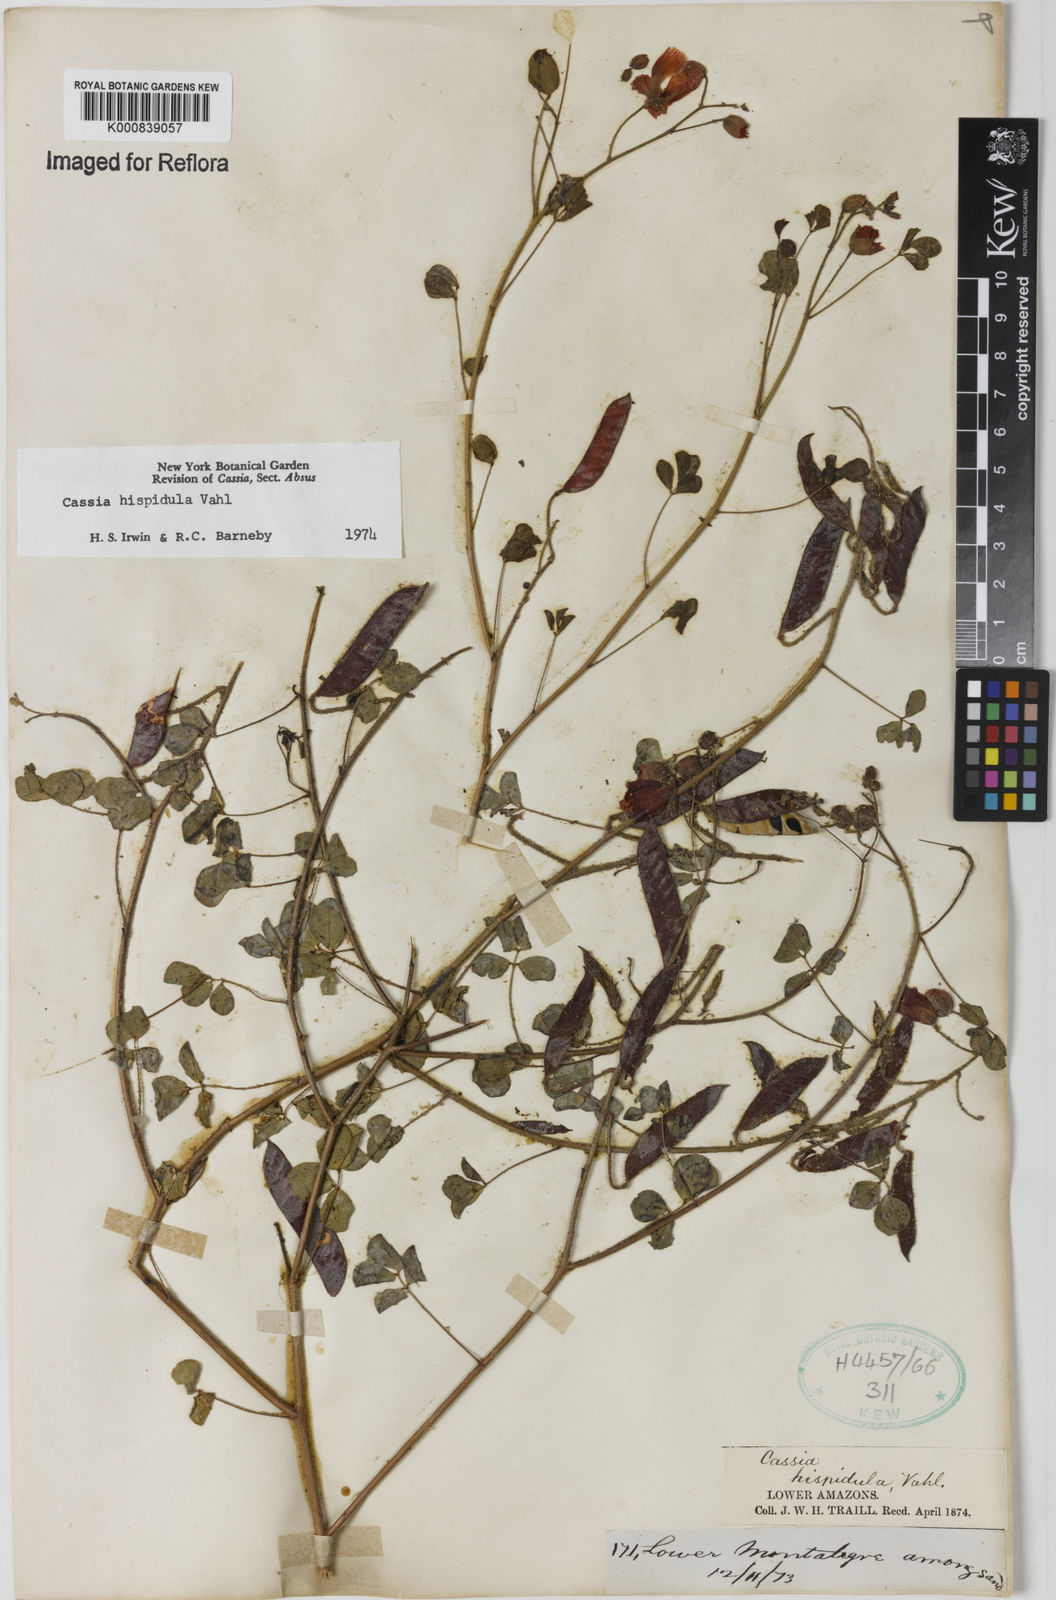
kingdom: Plantae
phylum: Tracheophyta
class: Magnoliopsida
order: Fabales
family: Fabaceae
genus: Chamaecrista
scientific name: Chamaecrista hispidula
